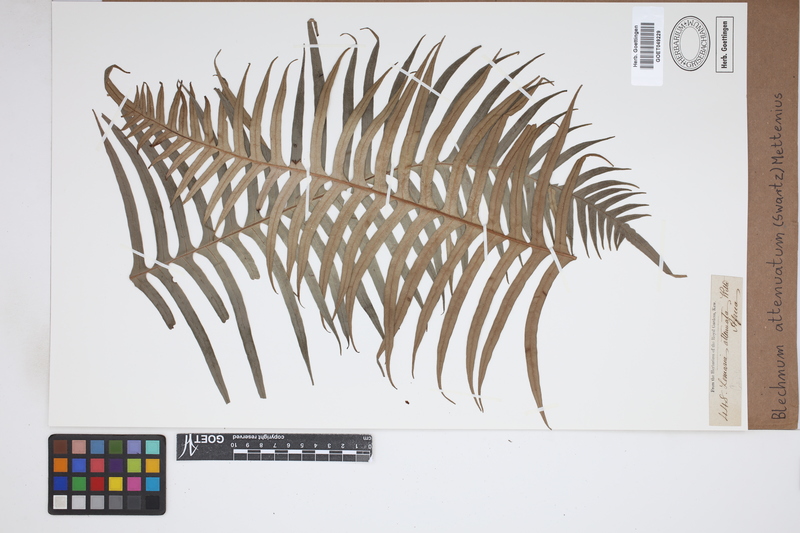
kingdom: Plantae
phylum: Tracheophyta
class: Polypodiopsida
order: Polypodiales
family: Blechnaceae
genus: Lomaridium
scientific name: Lomaridium attenuatum
